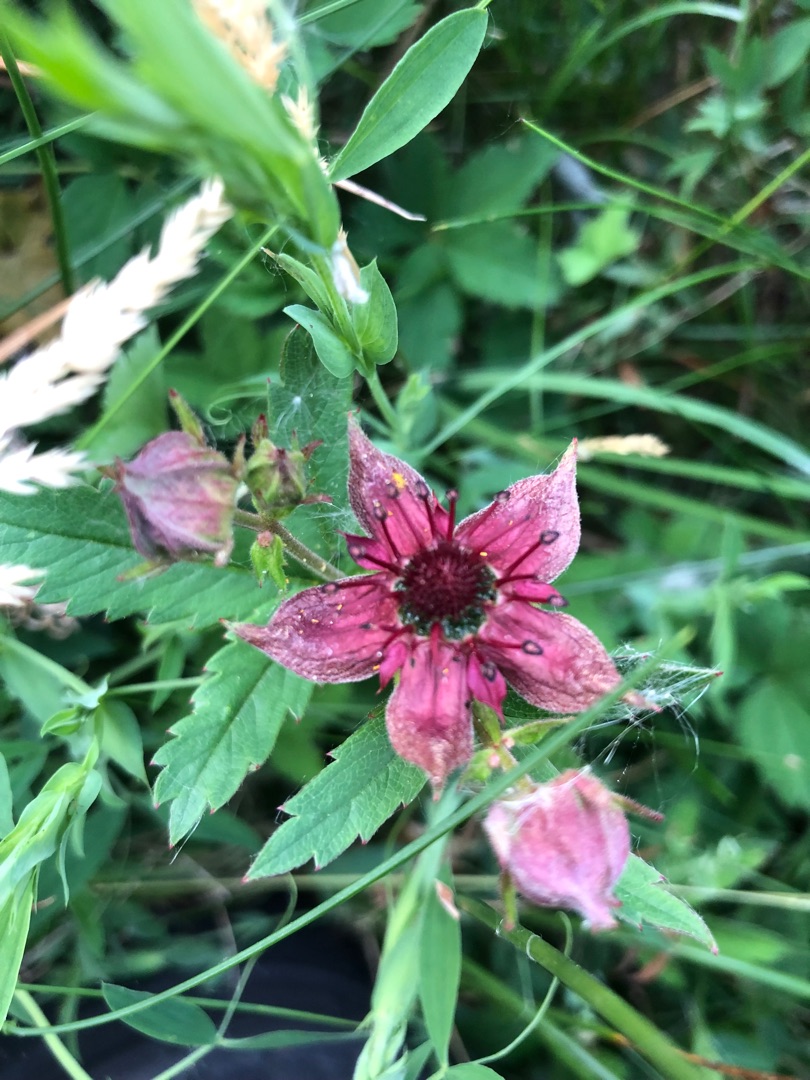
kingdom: Plantae
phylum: Tracheophyta
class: Magnoliopsida
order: Rosales
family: Rosaceae
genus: Comarum
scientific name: Comarum palustre
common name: Kragefod
